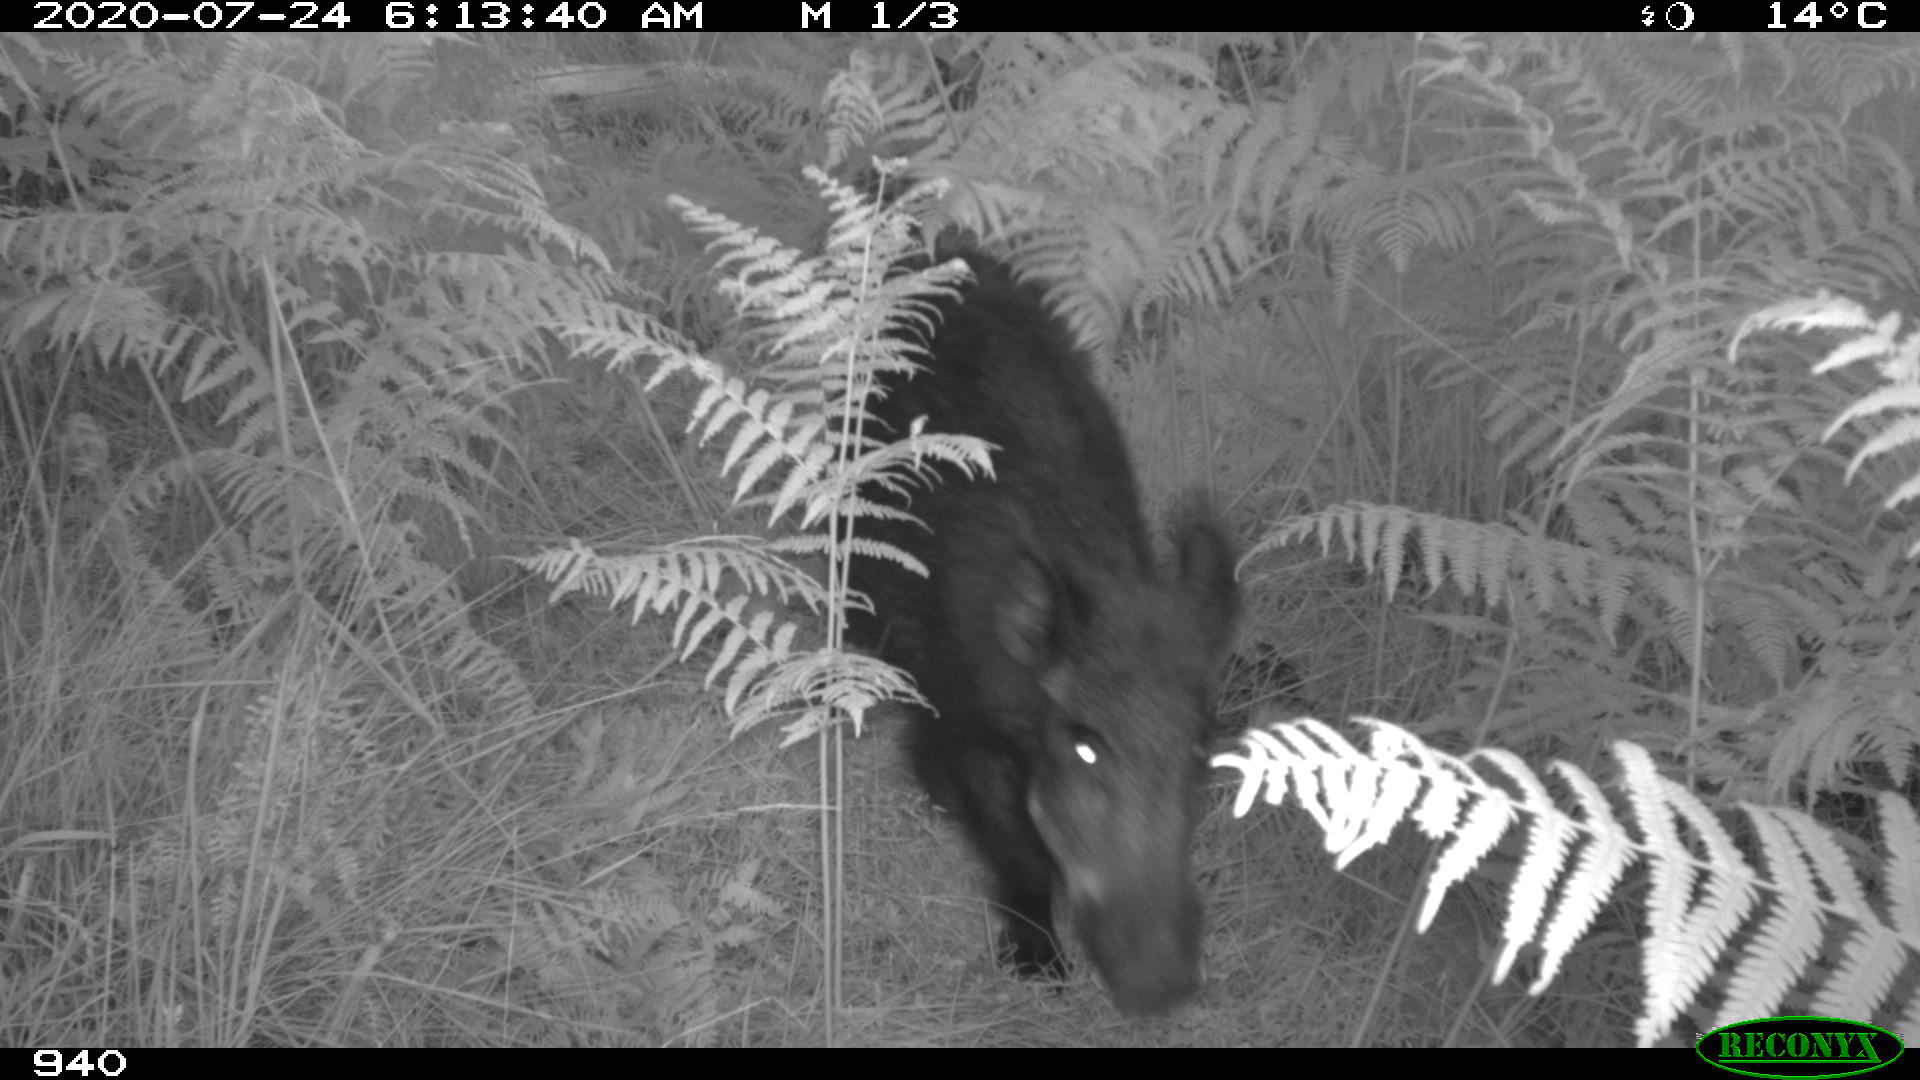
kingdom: Animalia
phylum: Chordata
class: Mammalia
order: Artiodactyla
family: Suidae
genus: Sus
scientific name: Sus scrofa
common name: Wild boar
